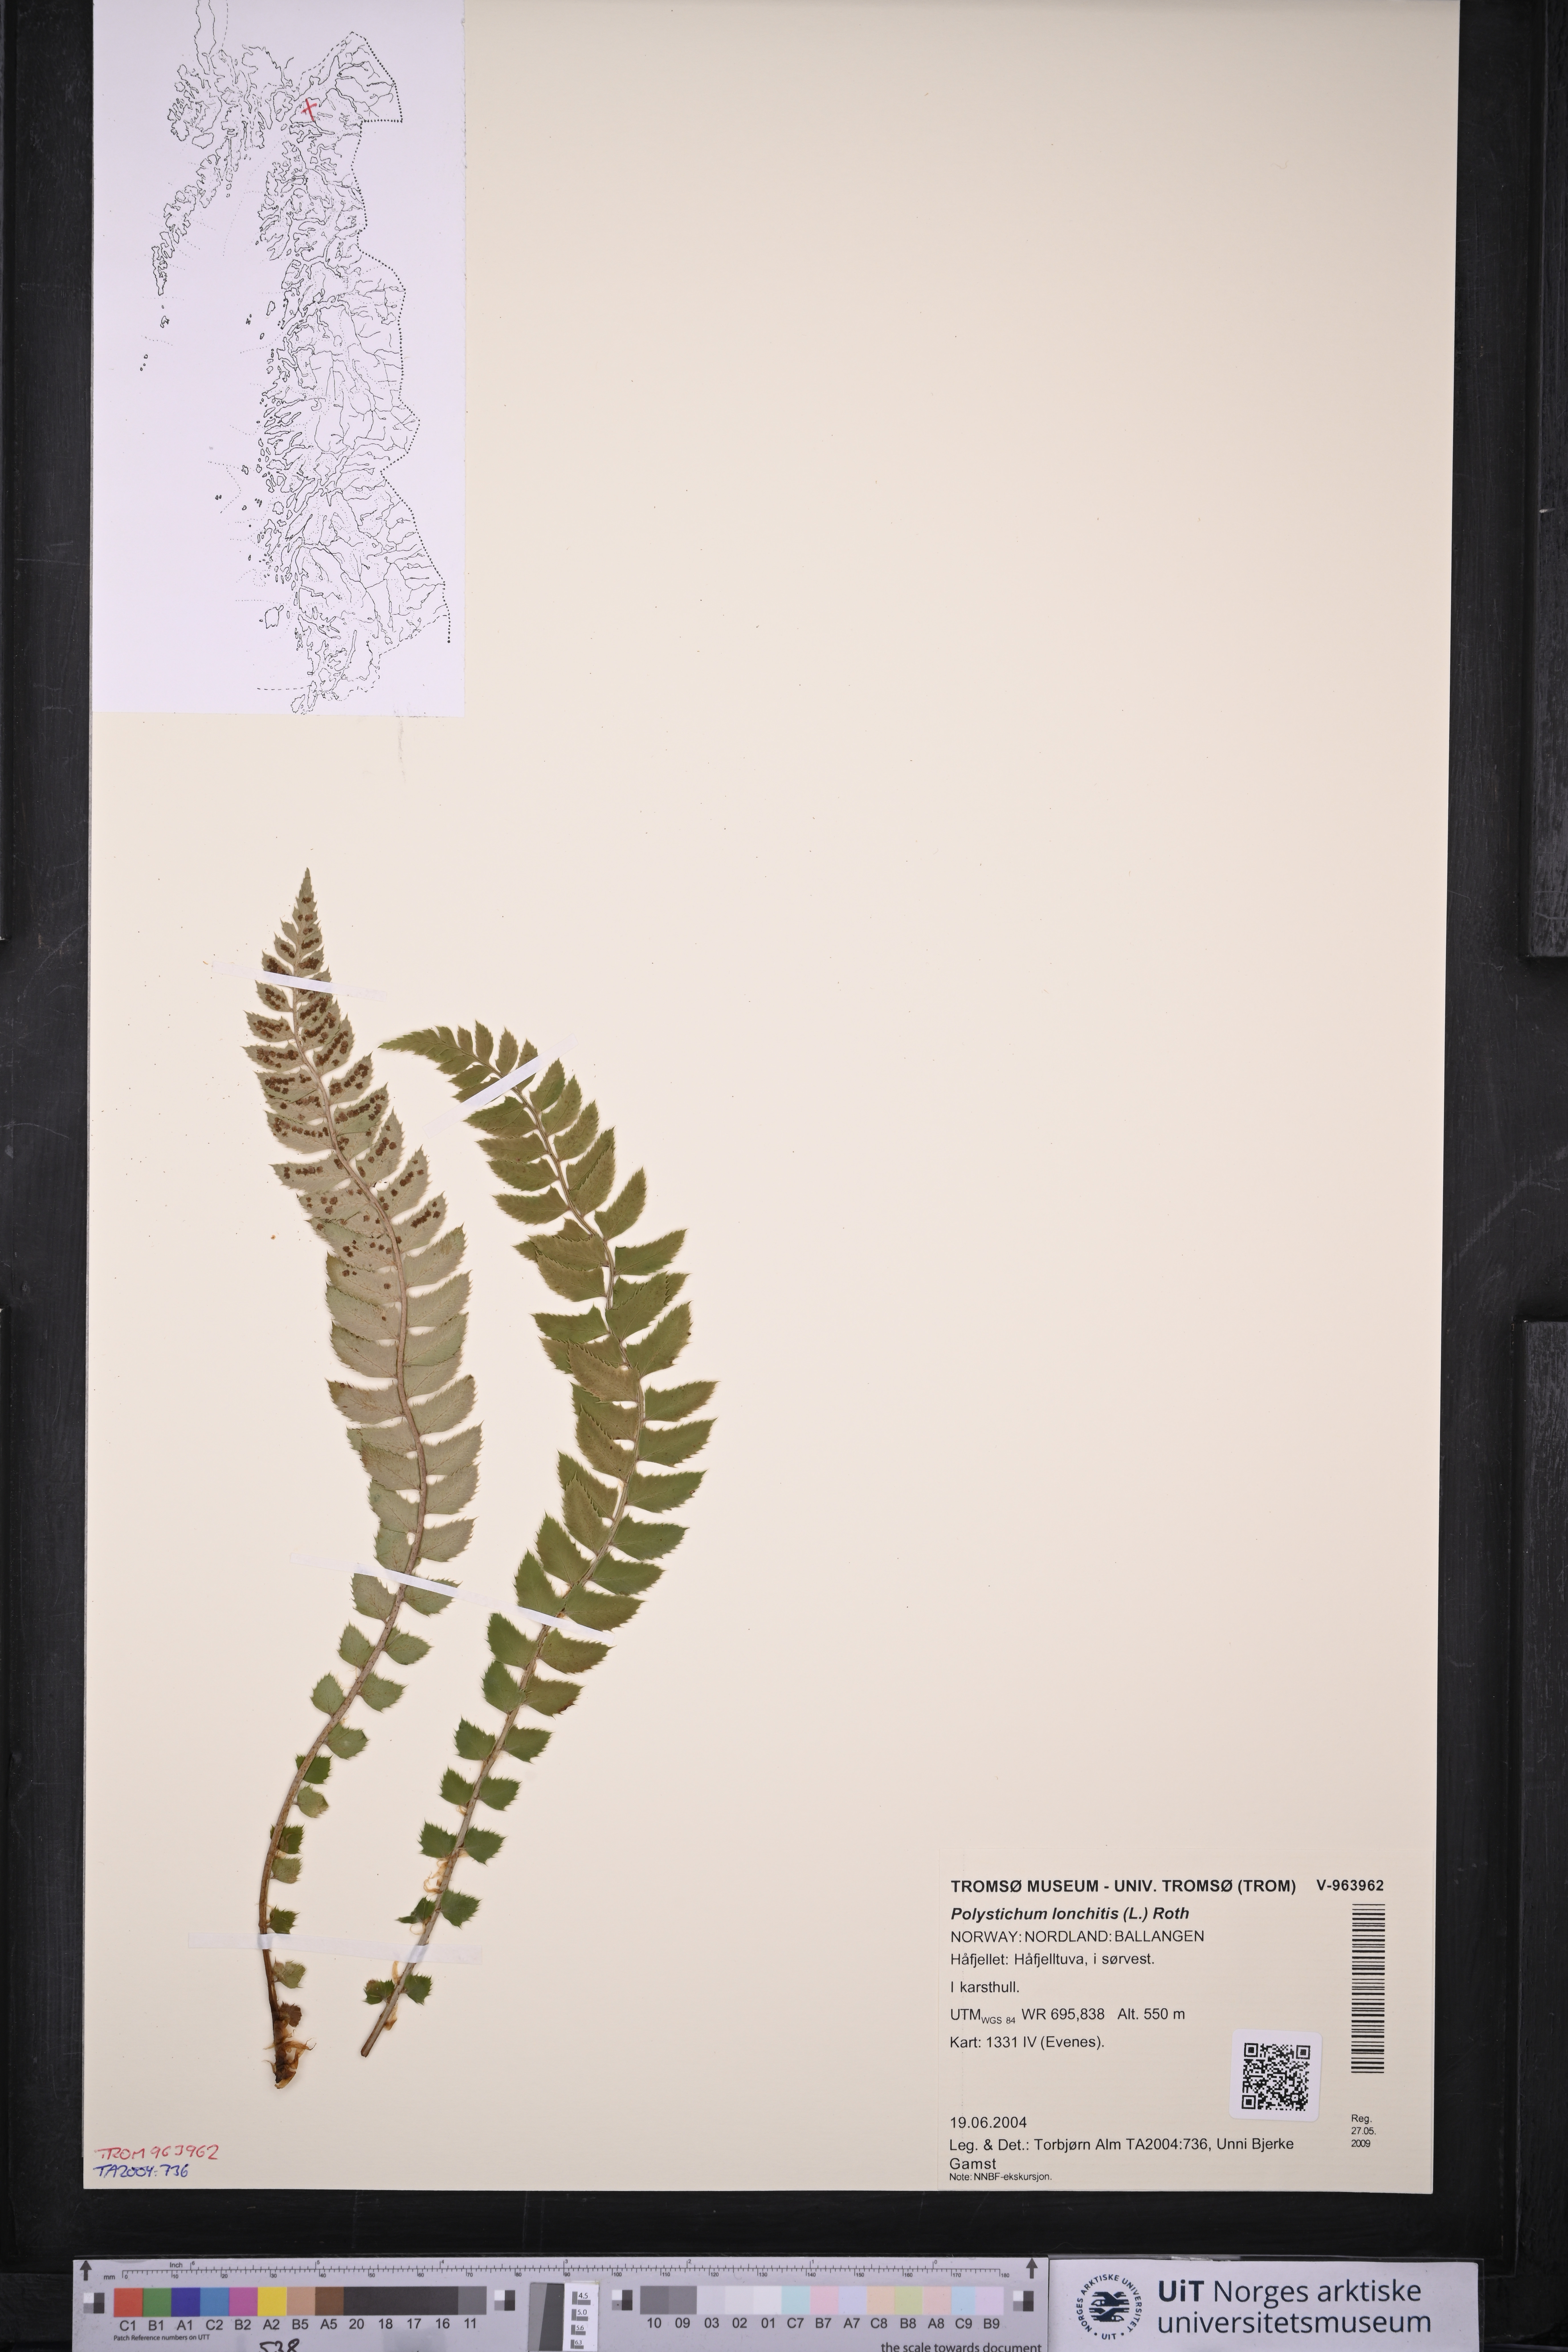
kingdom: Plantae
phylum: Tracheophyta
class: Polypodiopsida
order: Polypodiales
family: Dryopteridaceae
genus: Polystichum
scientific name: Polystichum lonchitis
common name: Holly fern
